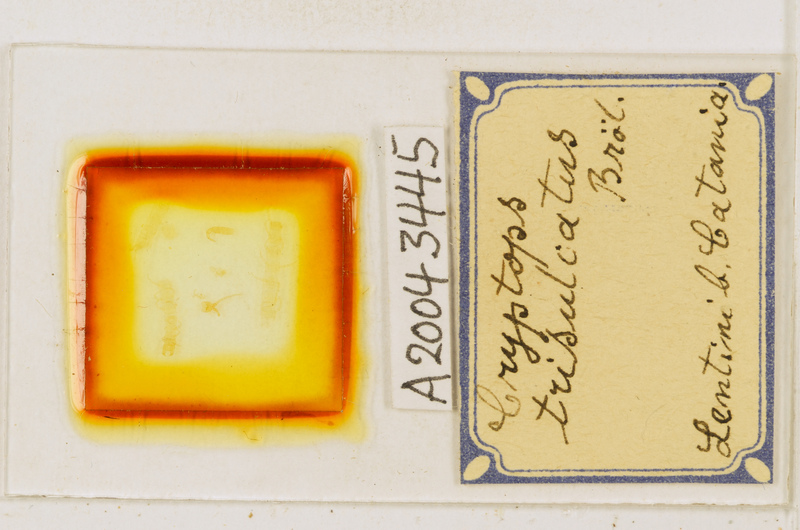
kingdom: Animalia
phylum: Arthropoda
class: Chilopoda
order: Scolopendromorpha
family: Cryptopidae
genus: Cryptops
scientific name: Cryptops trisulcatus
